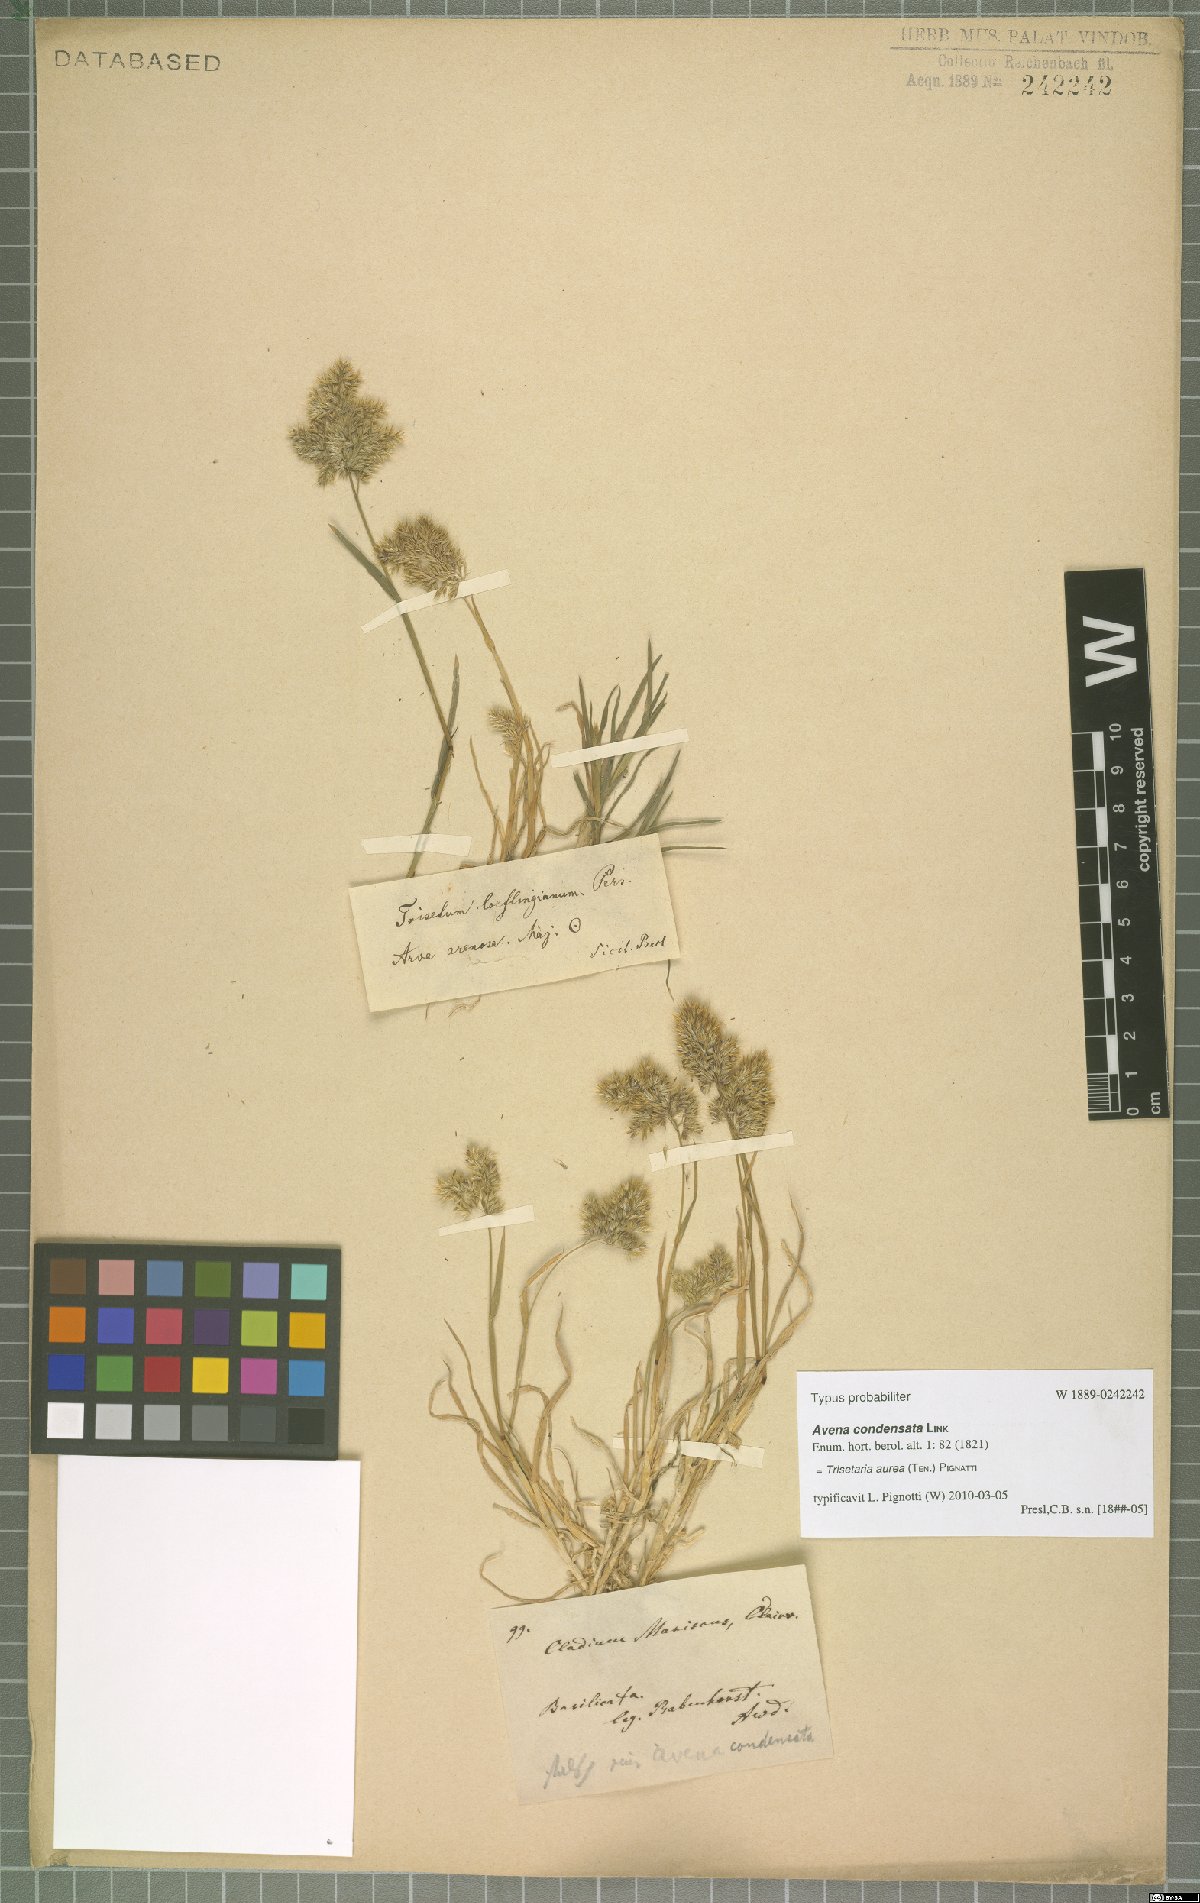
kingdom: Plantae
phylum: Tracheophyta
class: Liliopsida
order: Poales
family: Poaceae
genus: Trisetaria
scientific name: Trisetaria aurea
